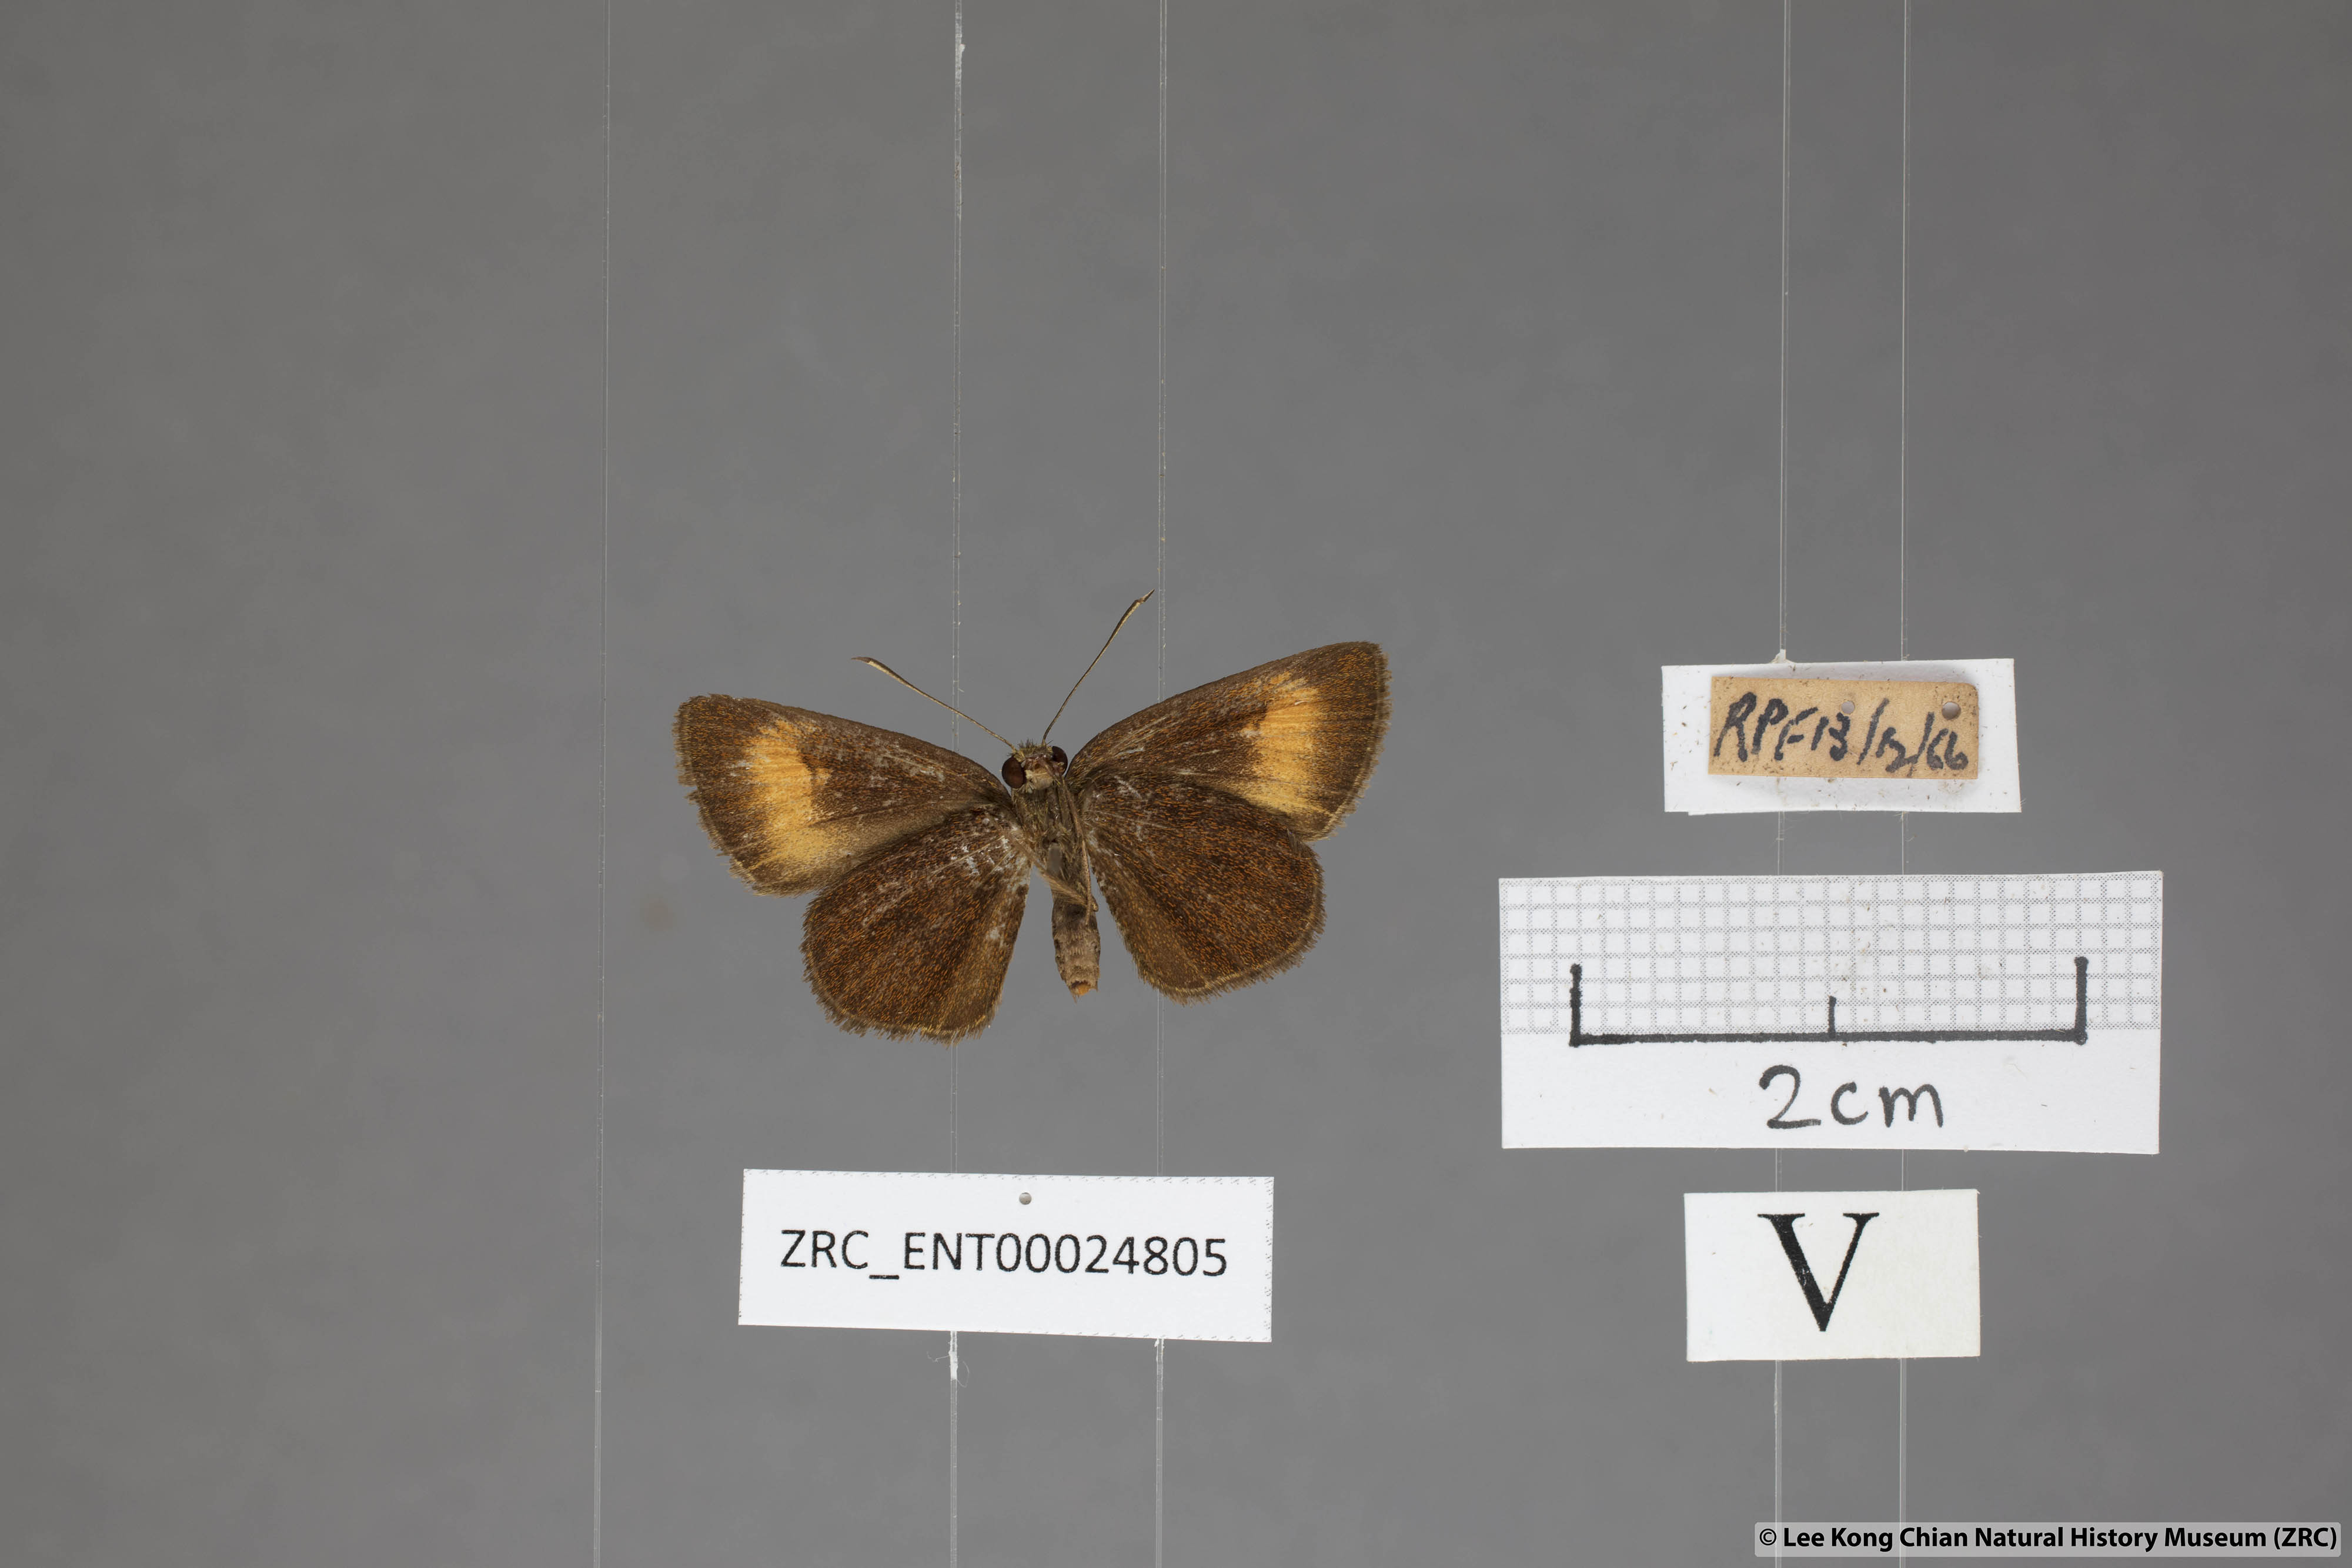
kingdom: Animalia
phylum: Arthropoda
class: Insecta
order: Lepidoptera
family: Hesperiidae
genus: Iambrix
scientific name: Iambrix Idmon obliquans
